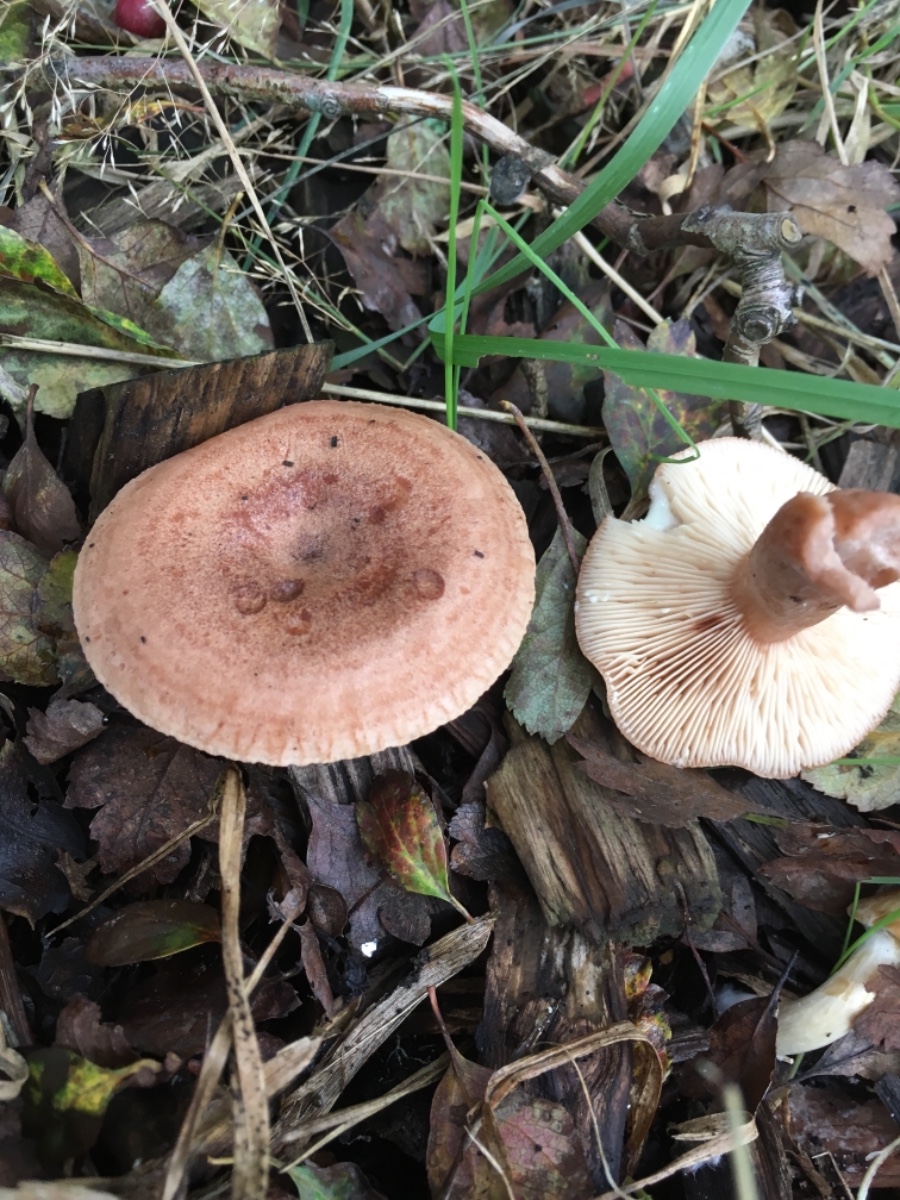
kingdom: Fungi
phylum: Basidiomycota
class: Agaricomycetes
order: Russulales
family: Russulaceae
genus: Lactarius
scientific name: Lactarius quietus
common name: ege-mælkehat
